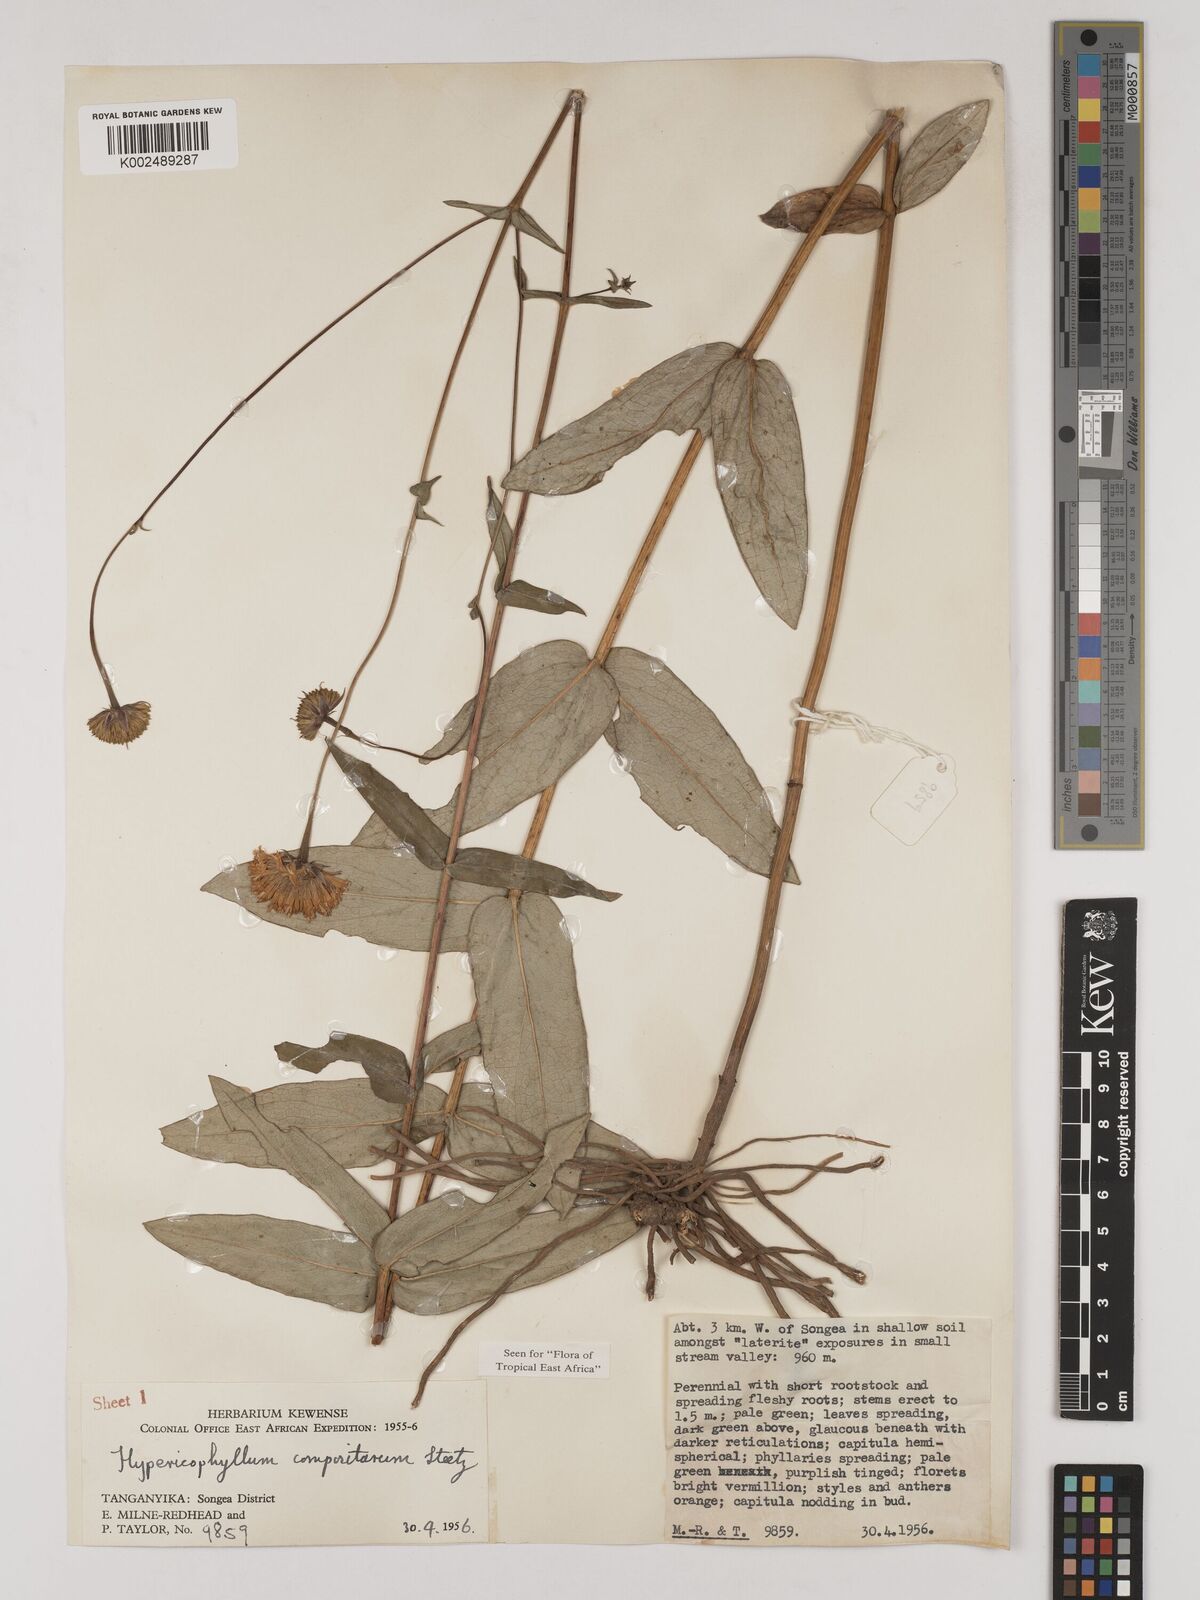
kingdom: Plantae
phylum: Tracheophyta
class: Magnoliopsida
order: Asterales
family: Asteraceae
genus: Hypericophyllum
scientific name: Hypericophyllum compositarum
